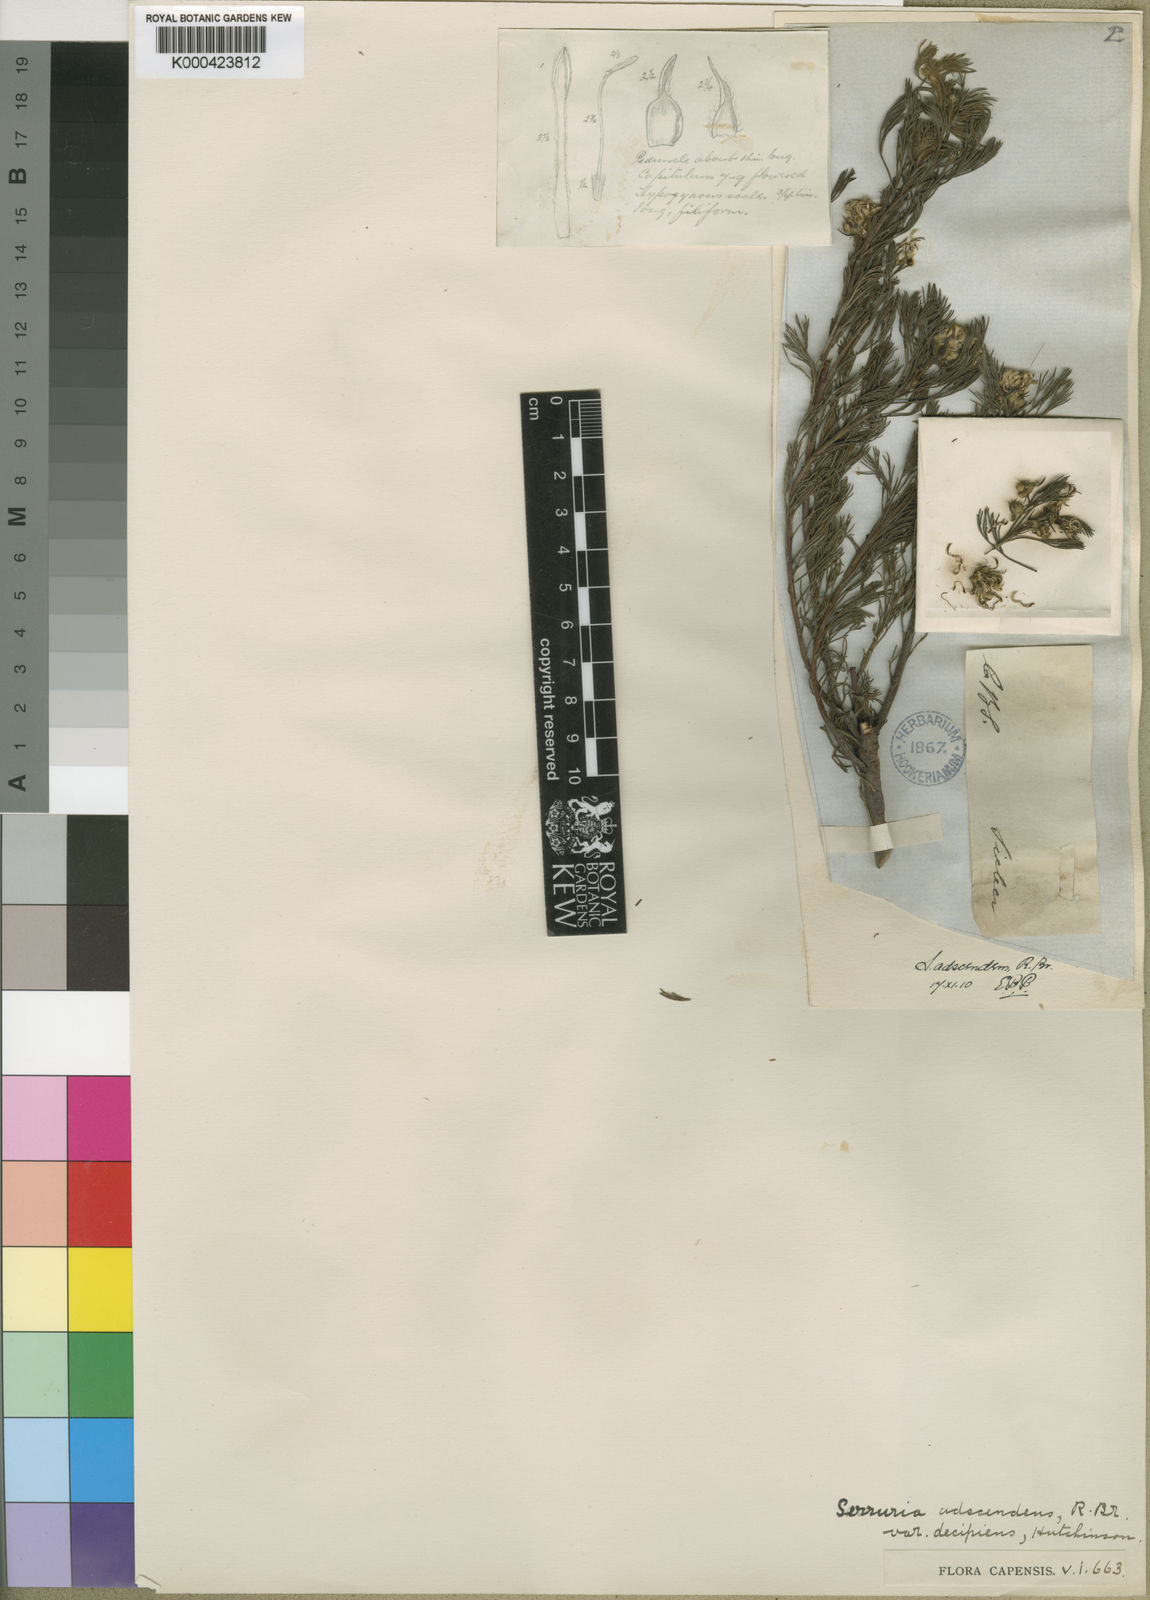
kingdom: Plantae
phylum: Tracheophyta
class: Magnoliopsida
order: Proteales
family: Proteaceae
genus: Serruria
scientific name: Serruria
